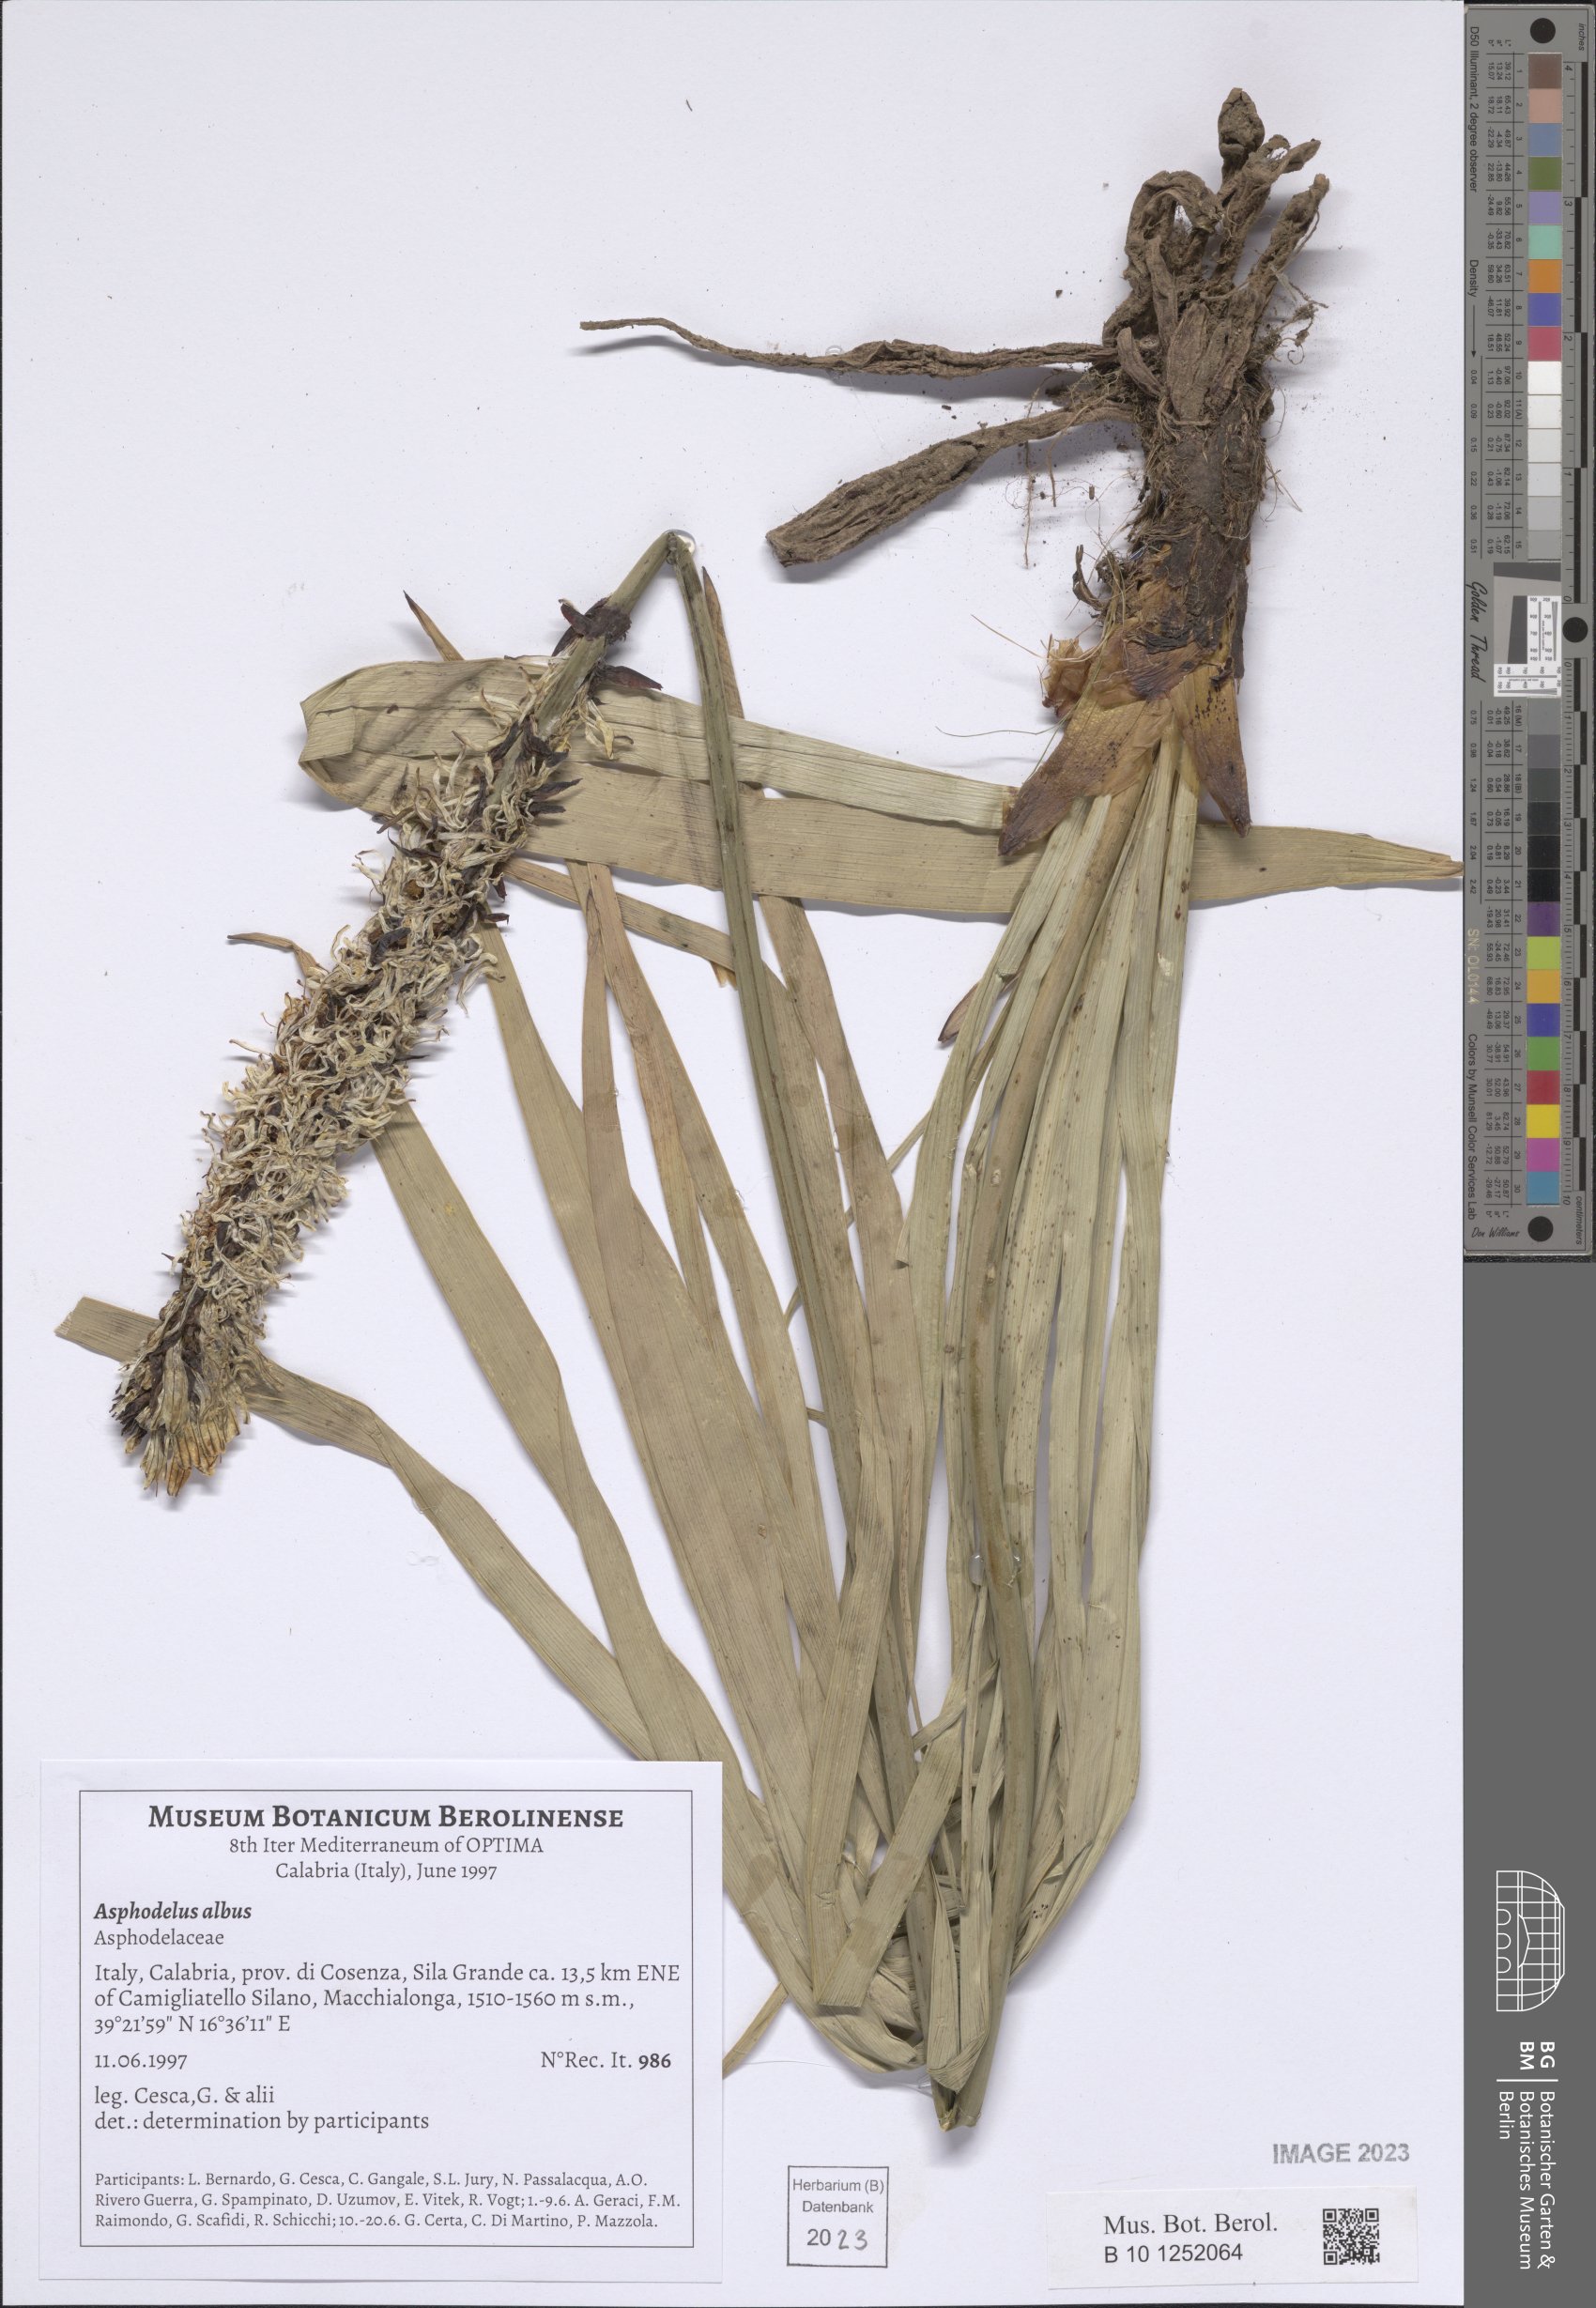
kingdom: Plantae
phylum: Tracheophyta
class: Liliopsida
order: Asparagales
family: Asphodelaceae
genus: Asphodelus
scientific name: Asphodelus albus
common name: White asphodel
